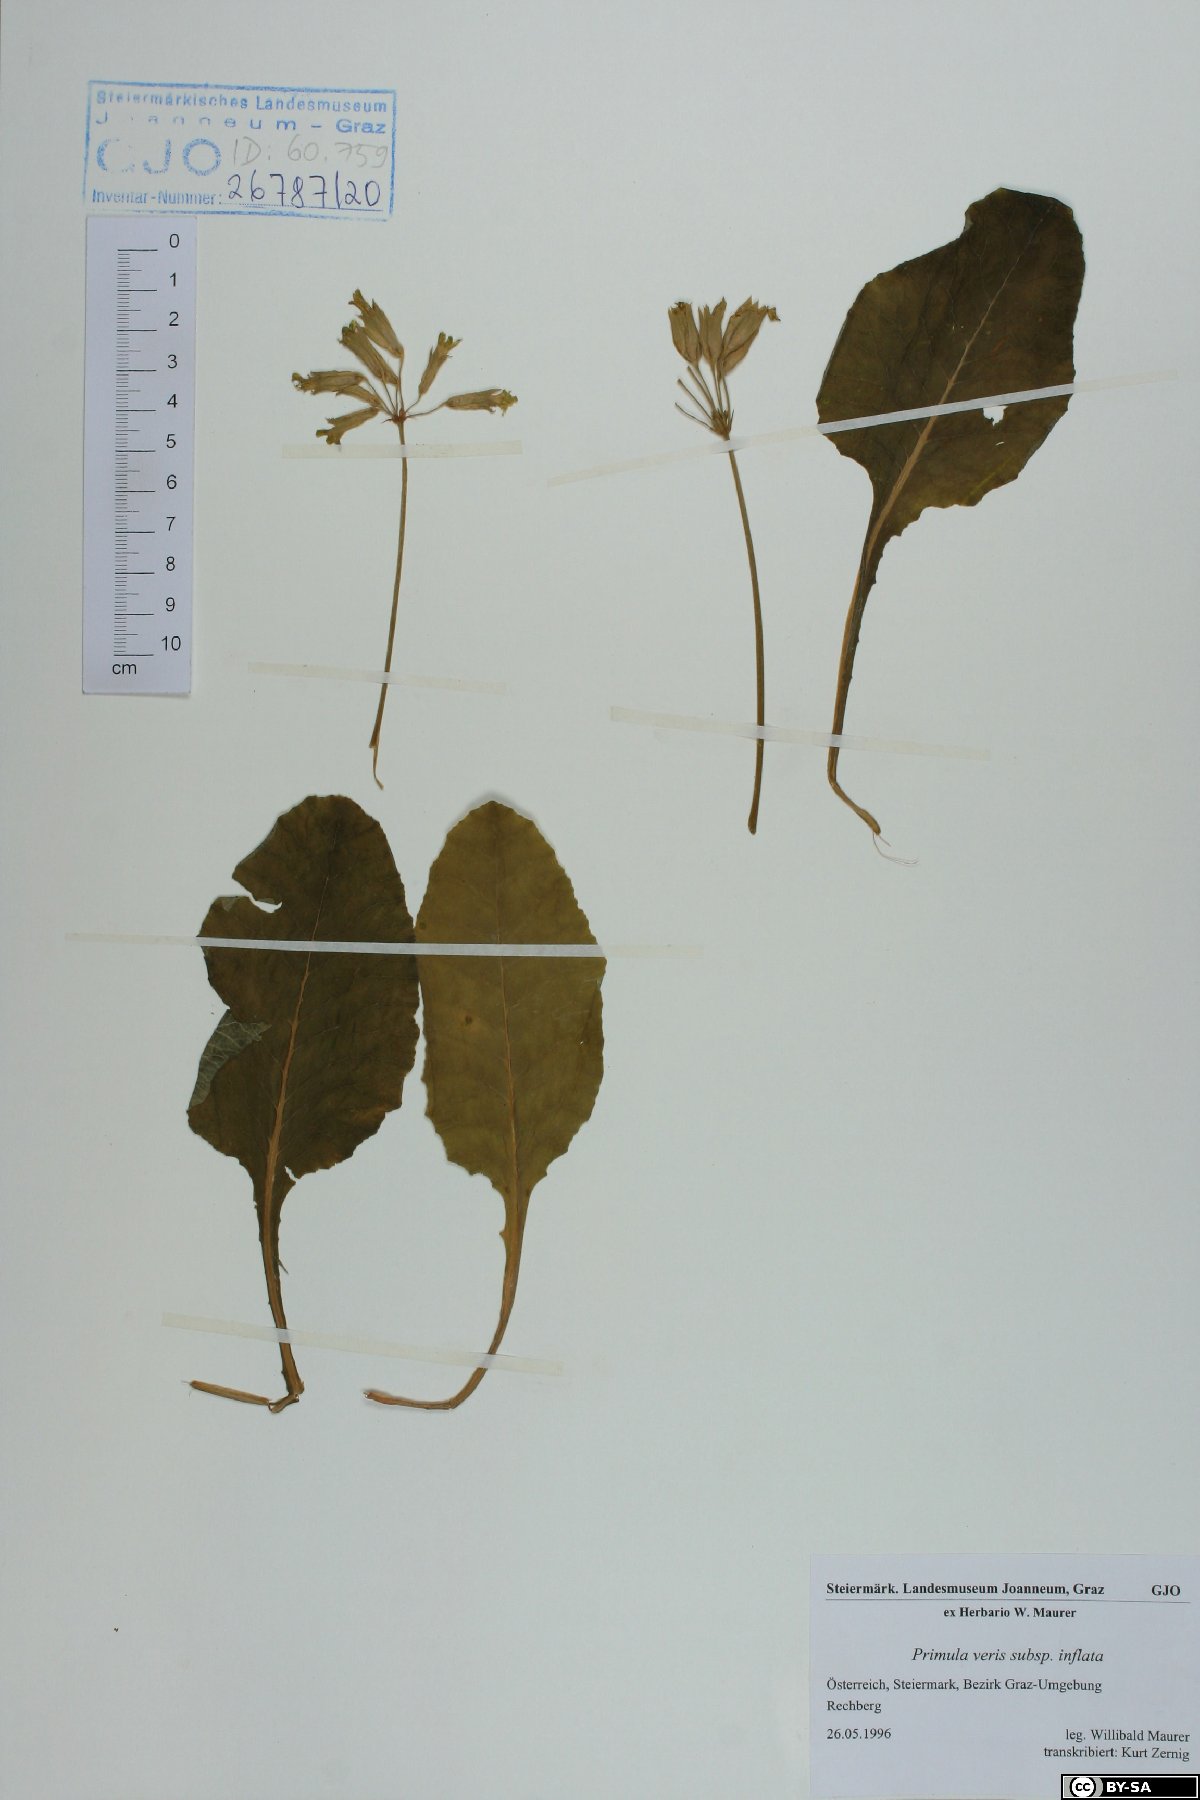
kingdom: Plantae
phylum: Tracheophyta
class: Magnoliopsida
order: Ericales
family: Primulaceae
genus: Primula
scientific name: Primula veris
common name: Cowslip
